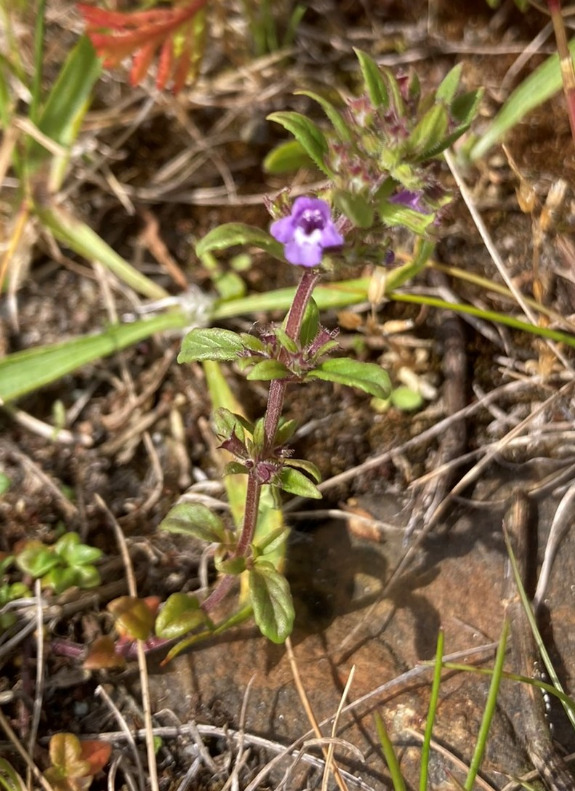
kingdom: Plantae
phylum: Tracheophyta
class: Magnoliopsida
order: Lamiales
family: Lamiaceae
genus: Clinopodium
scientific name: Clinopodium acinos
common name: Voldtimian
